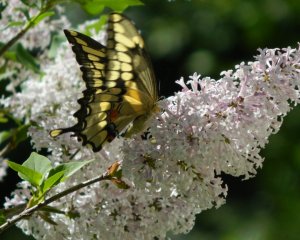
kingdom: Animalia
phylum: Arthropoda
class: Insecta
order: Lepidoptera
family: Papilionidae
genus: Papilio
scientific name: Papilio cresphontes
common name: Eastern Giant Swallowtail
